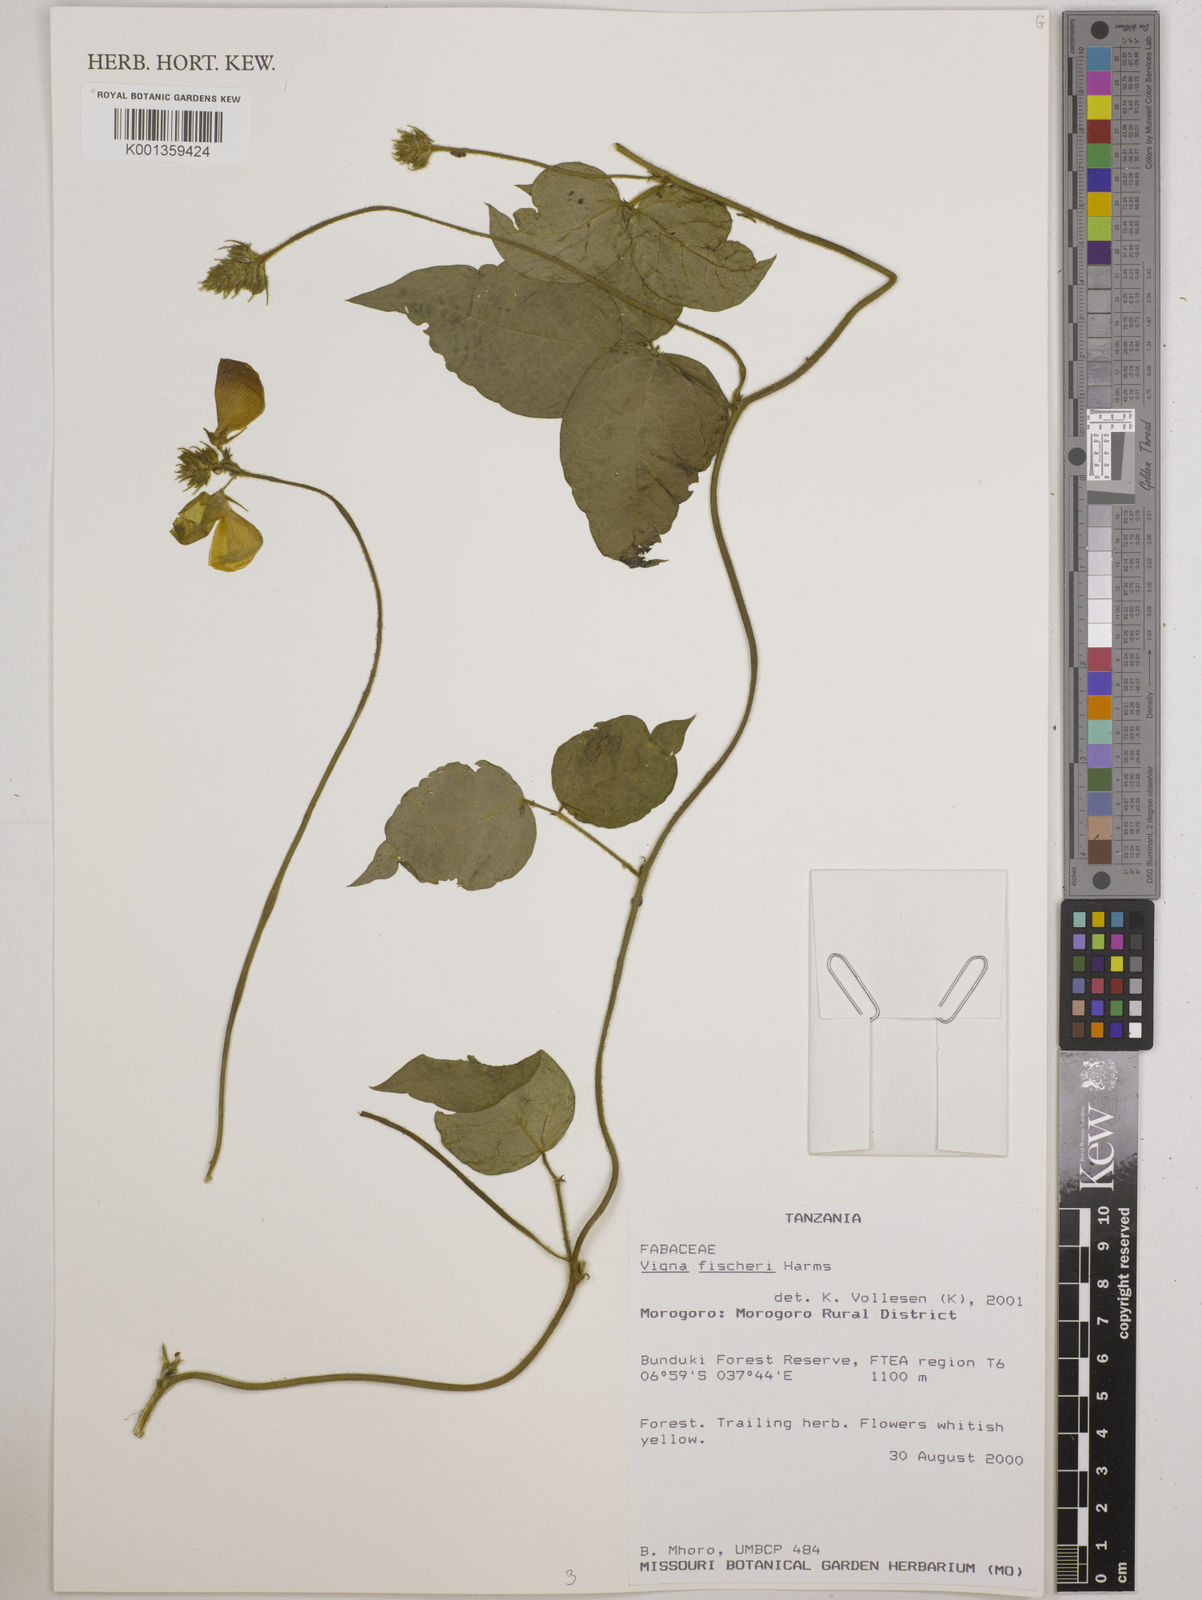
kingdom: Plantae
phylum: Tracheophyta
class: Magnoliopsida
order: Fabales
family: Fabaceae
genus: Vigna
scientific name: Vigna fischeri
